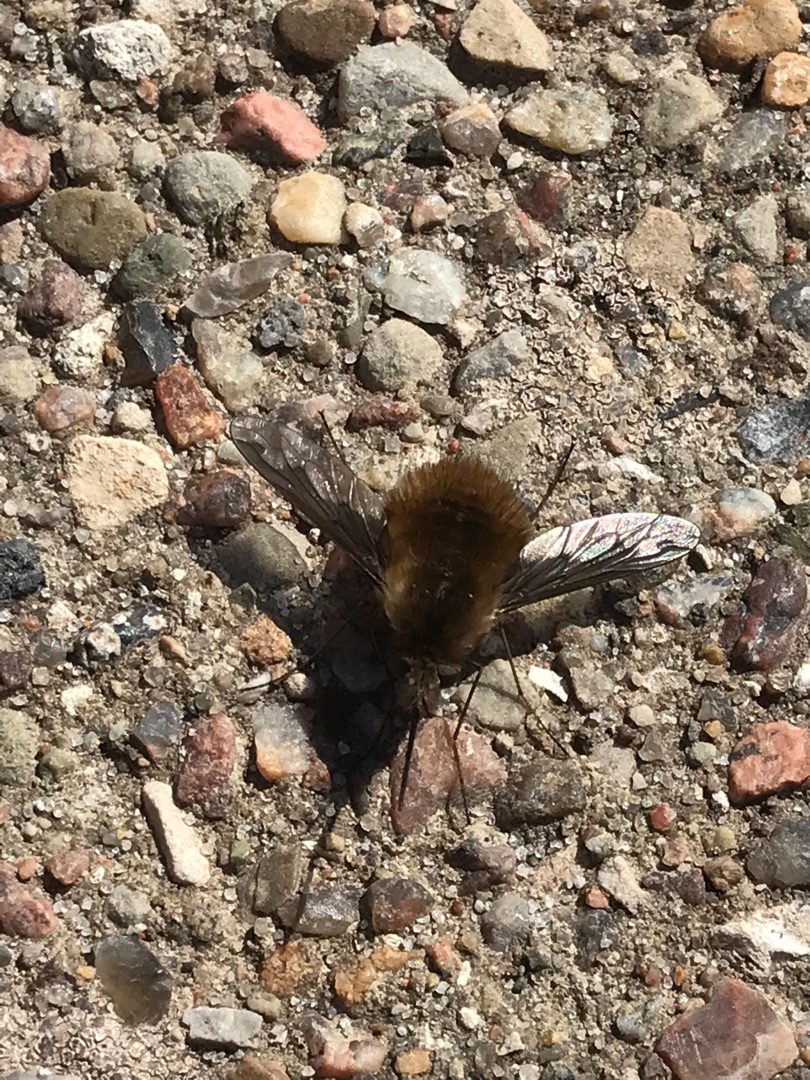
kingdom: Animalia
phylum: Arthropoda
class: Insecta
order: Diptera
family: Bombyliidae
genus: Bombylius
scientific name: Bombylius major
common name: Stor humleflue
